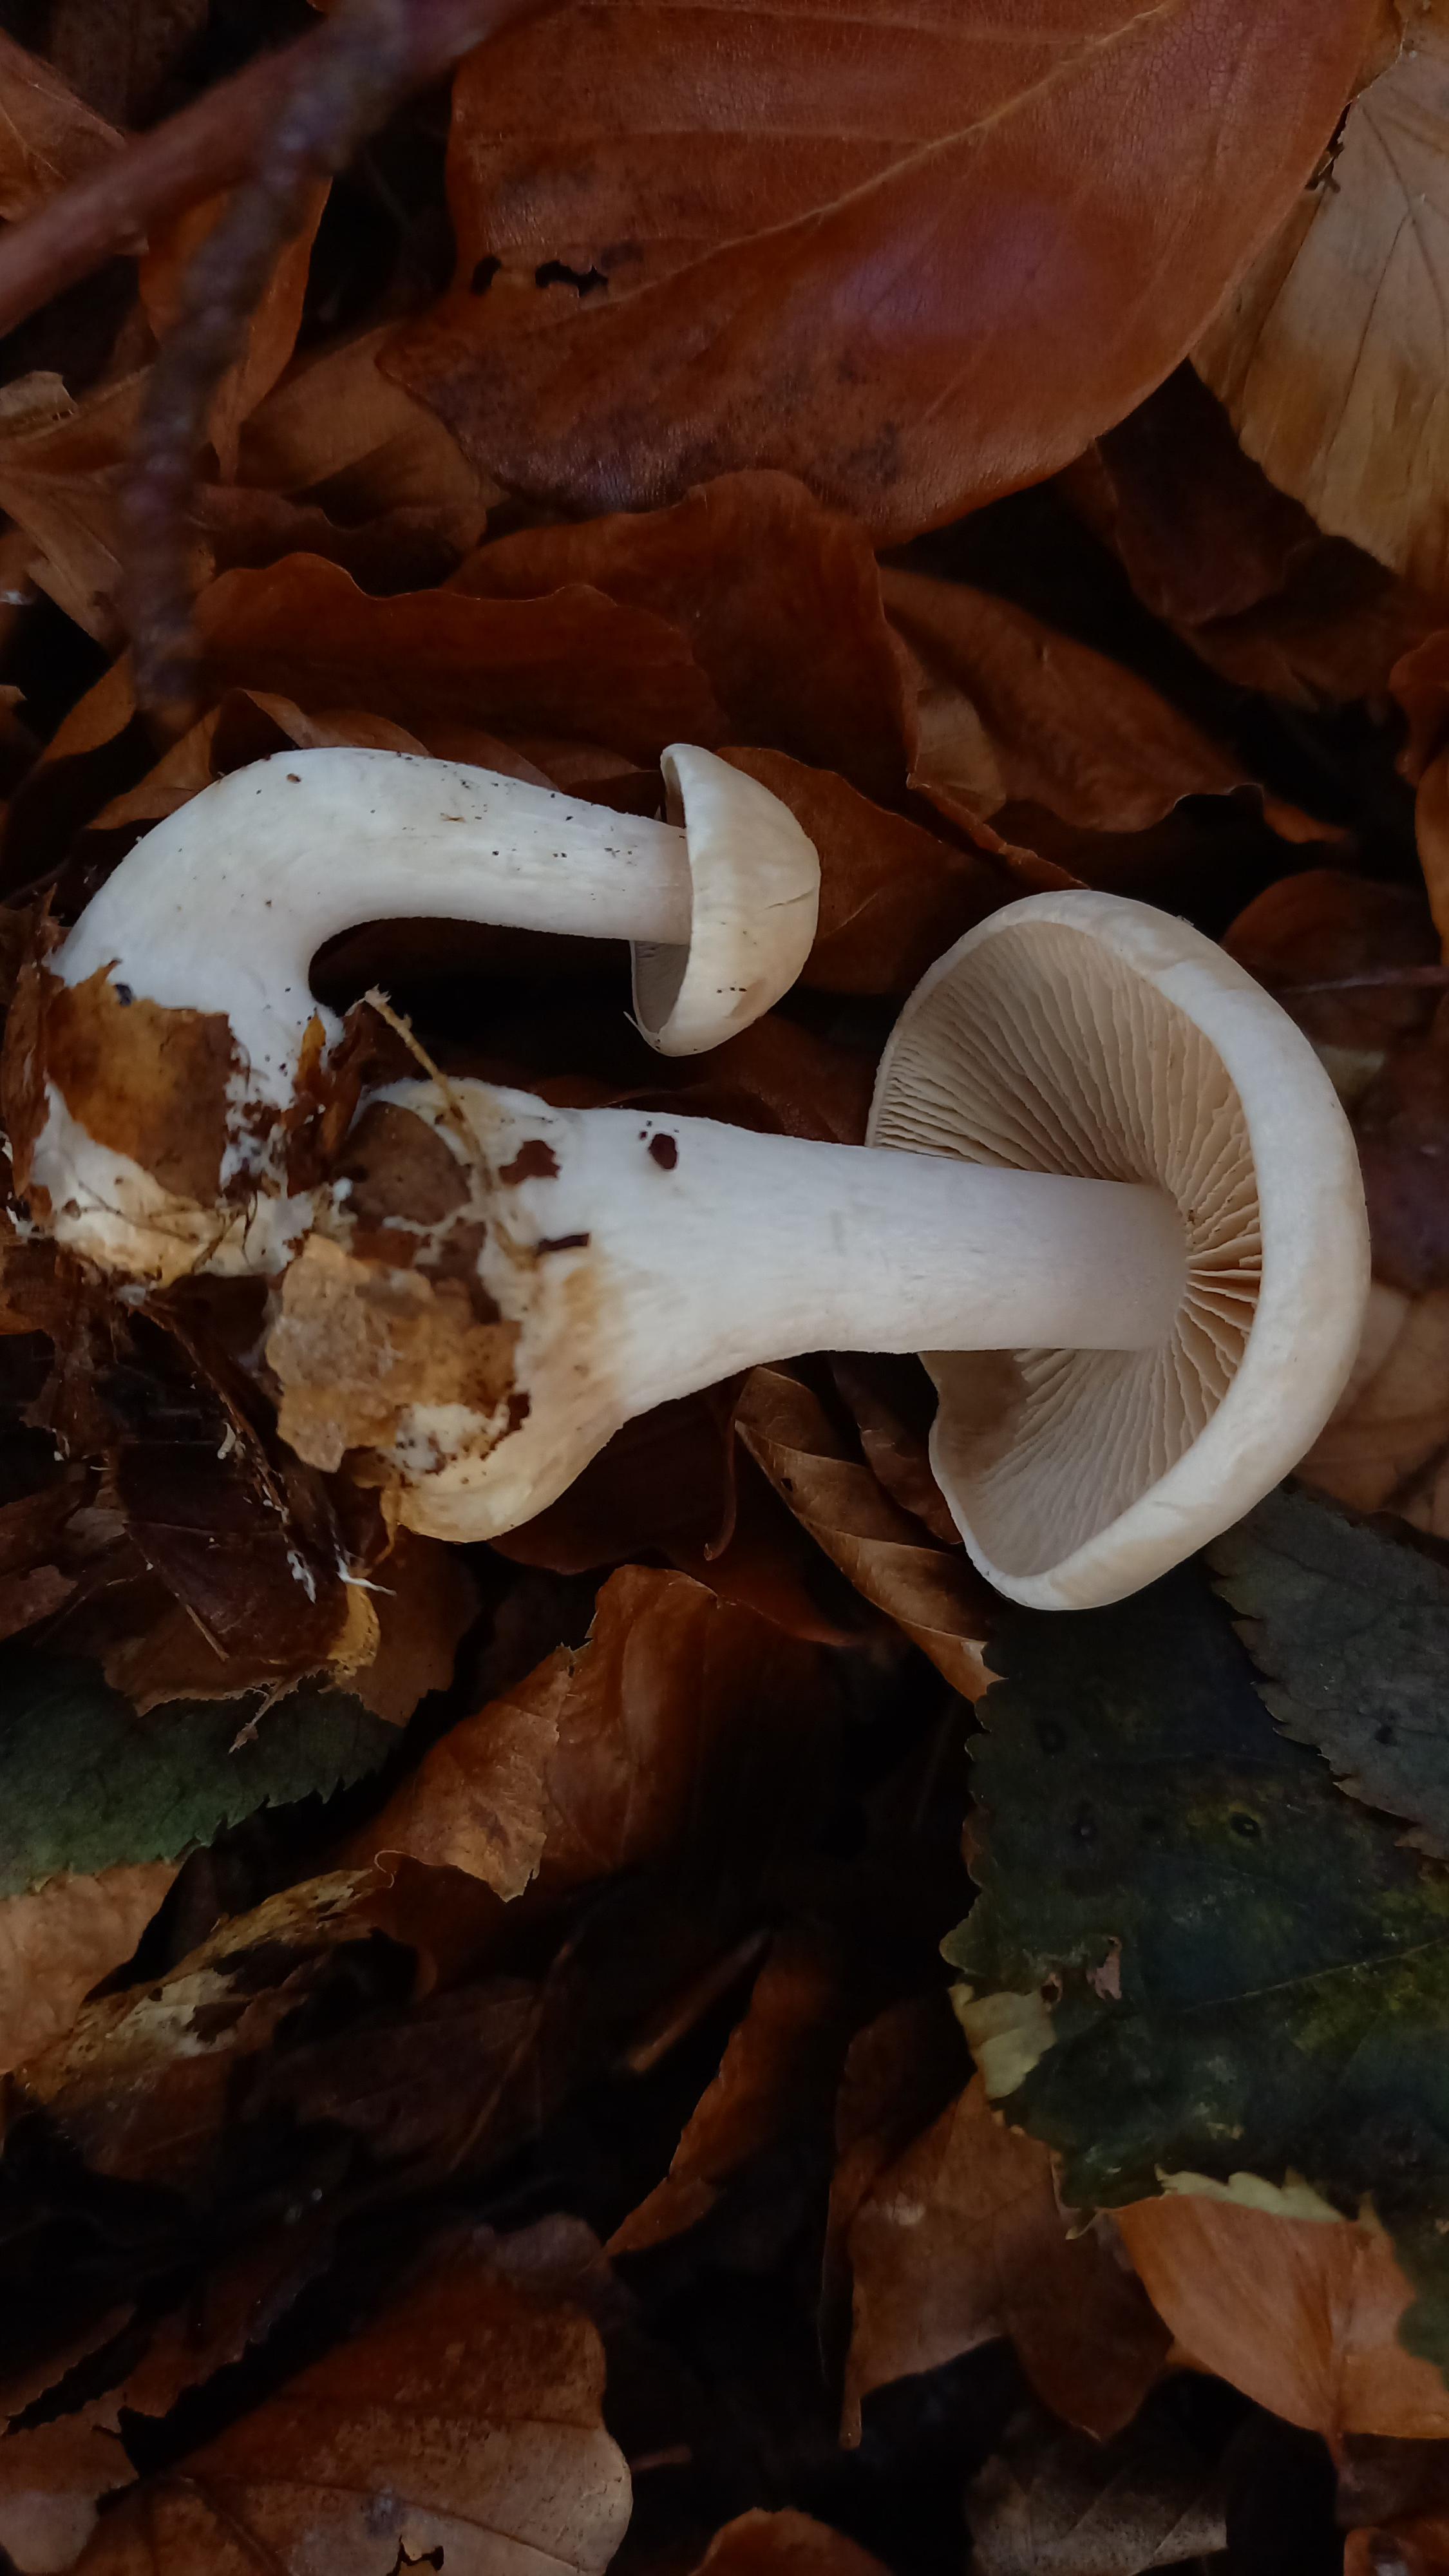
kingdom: Fungi
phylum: Basidiomycota
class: Agaricomycetes
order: Agaricales
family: Hymenogastraceae
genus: Hebeloma
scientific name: Hebeloma
